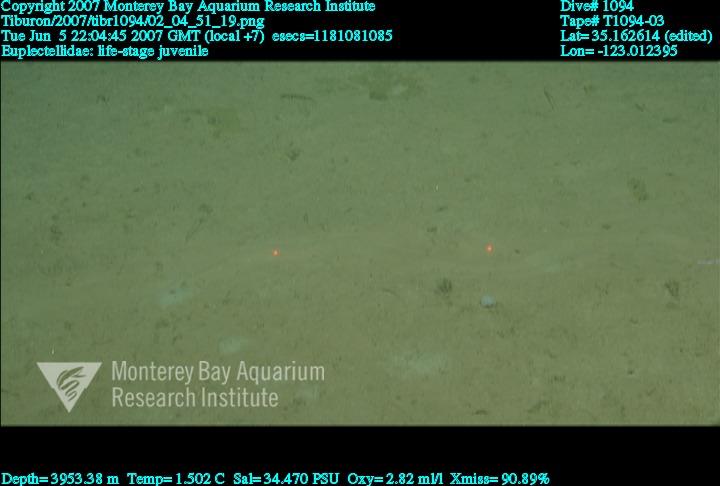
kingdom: Animalia
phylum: Porifera
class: Hexactinellida
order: Lyssacinosida
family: Euplectellidae
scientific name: Euplectellidae
